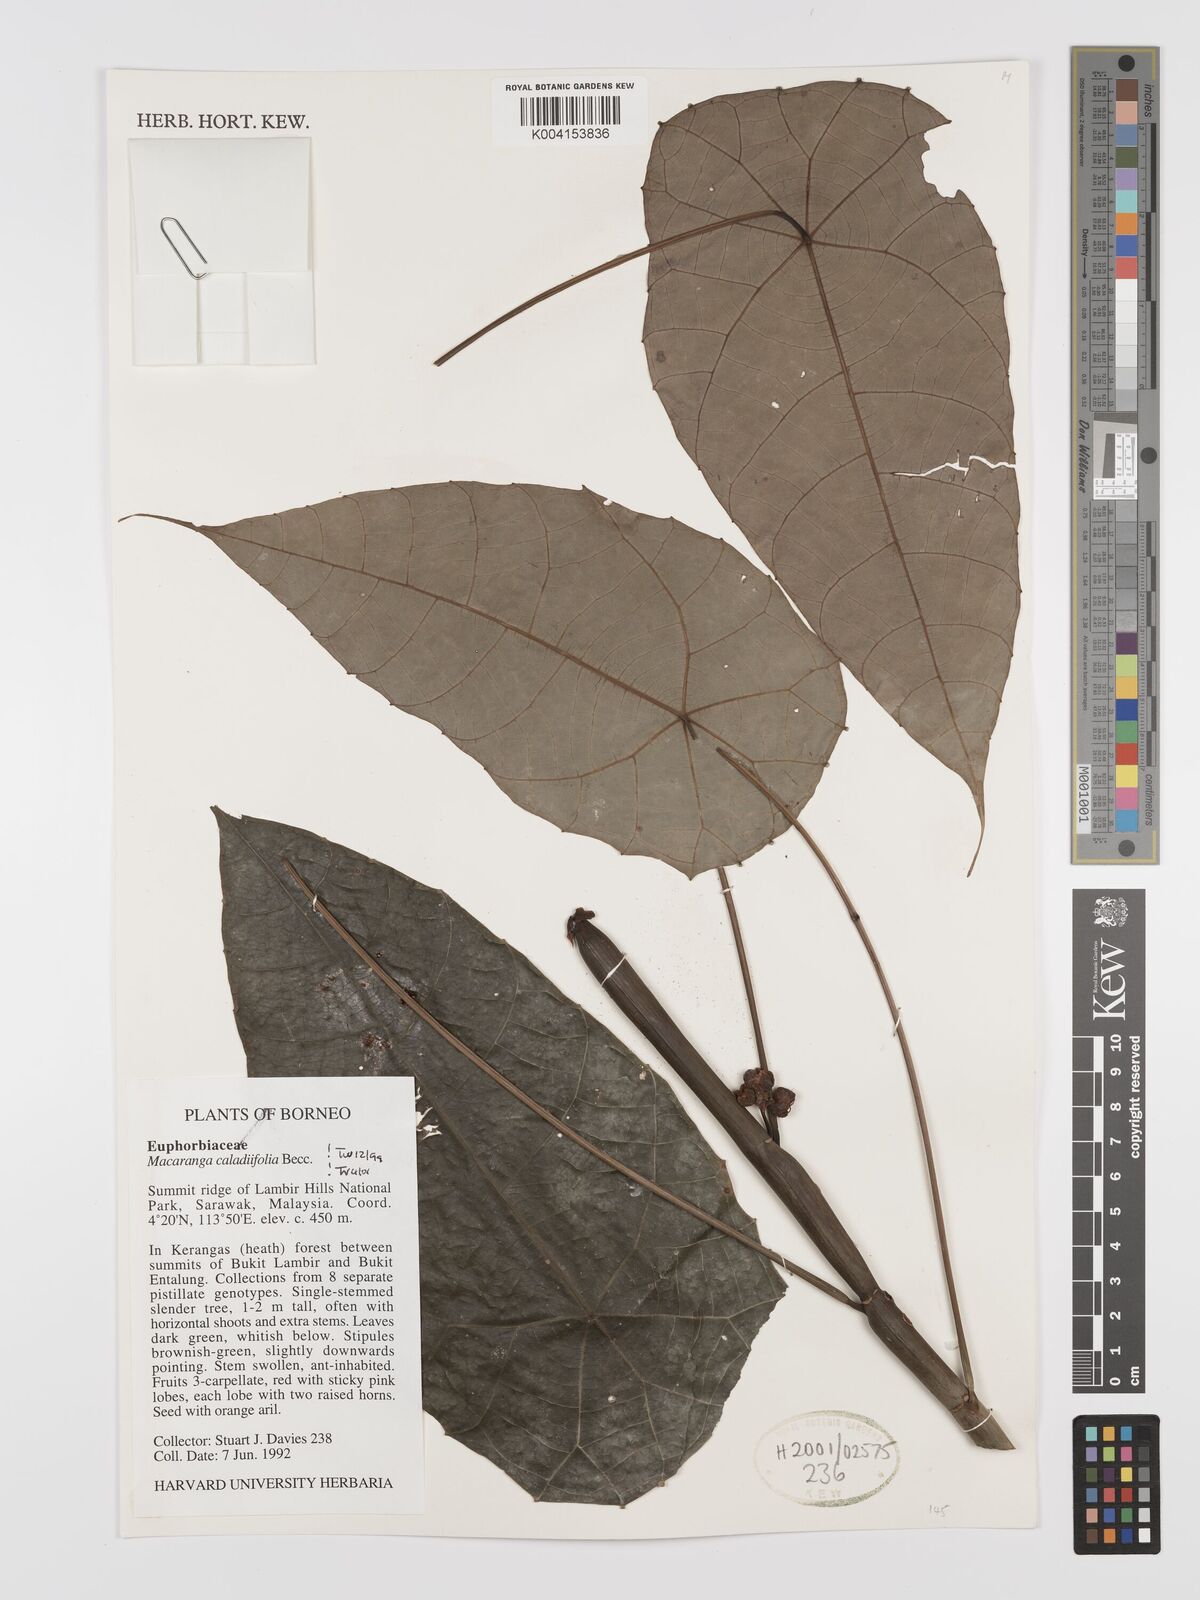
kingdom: Plantae
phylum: Tracheophyta
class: Magnoliopsida
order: Malpighiales
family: Euphorbiaceae
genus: Macaranga
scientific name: Macaranga caladiifolia
